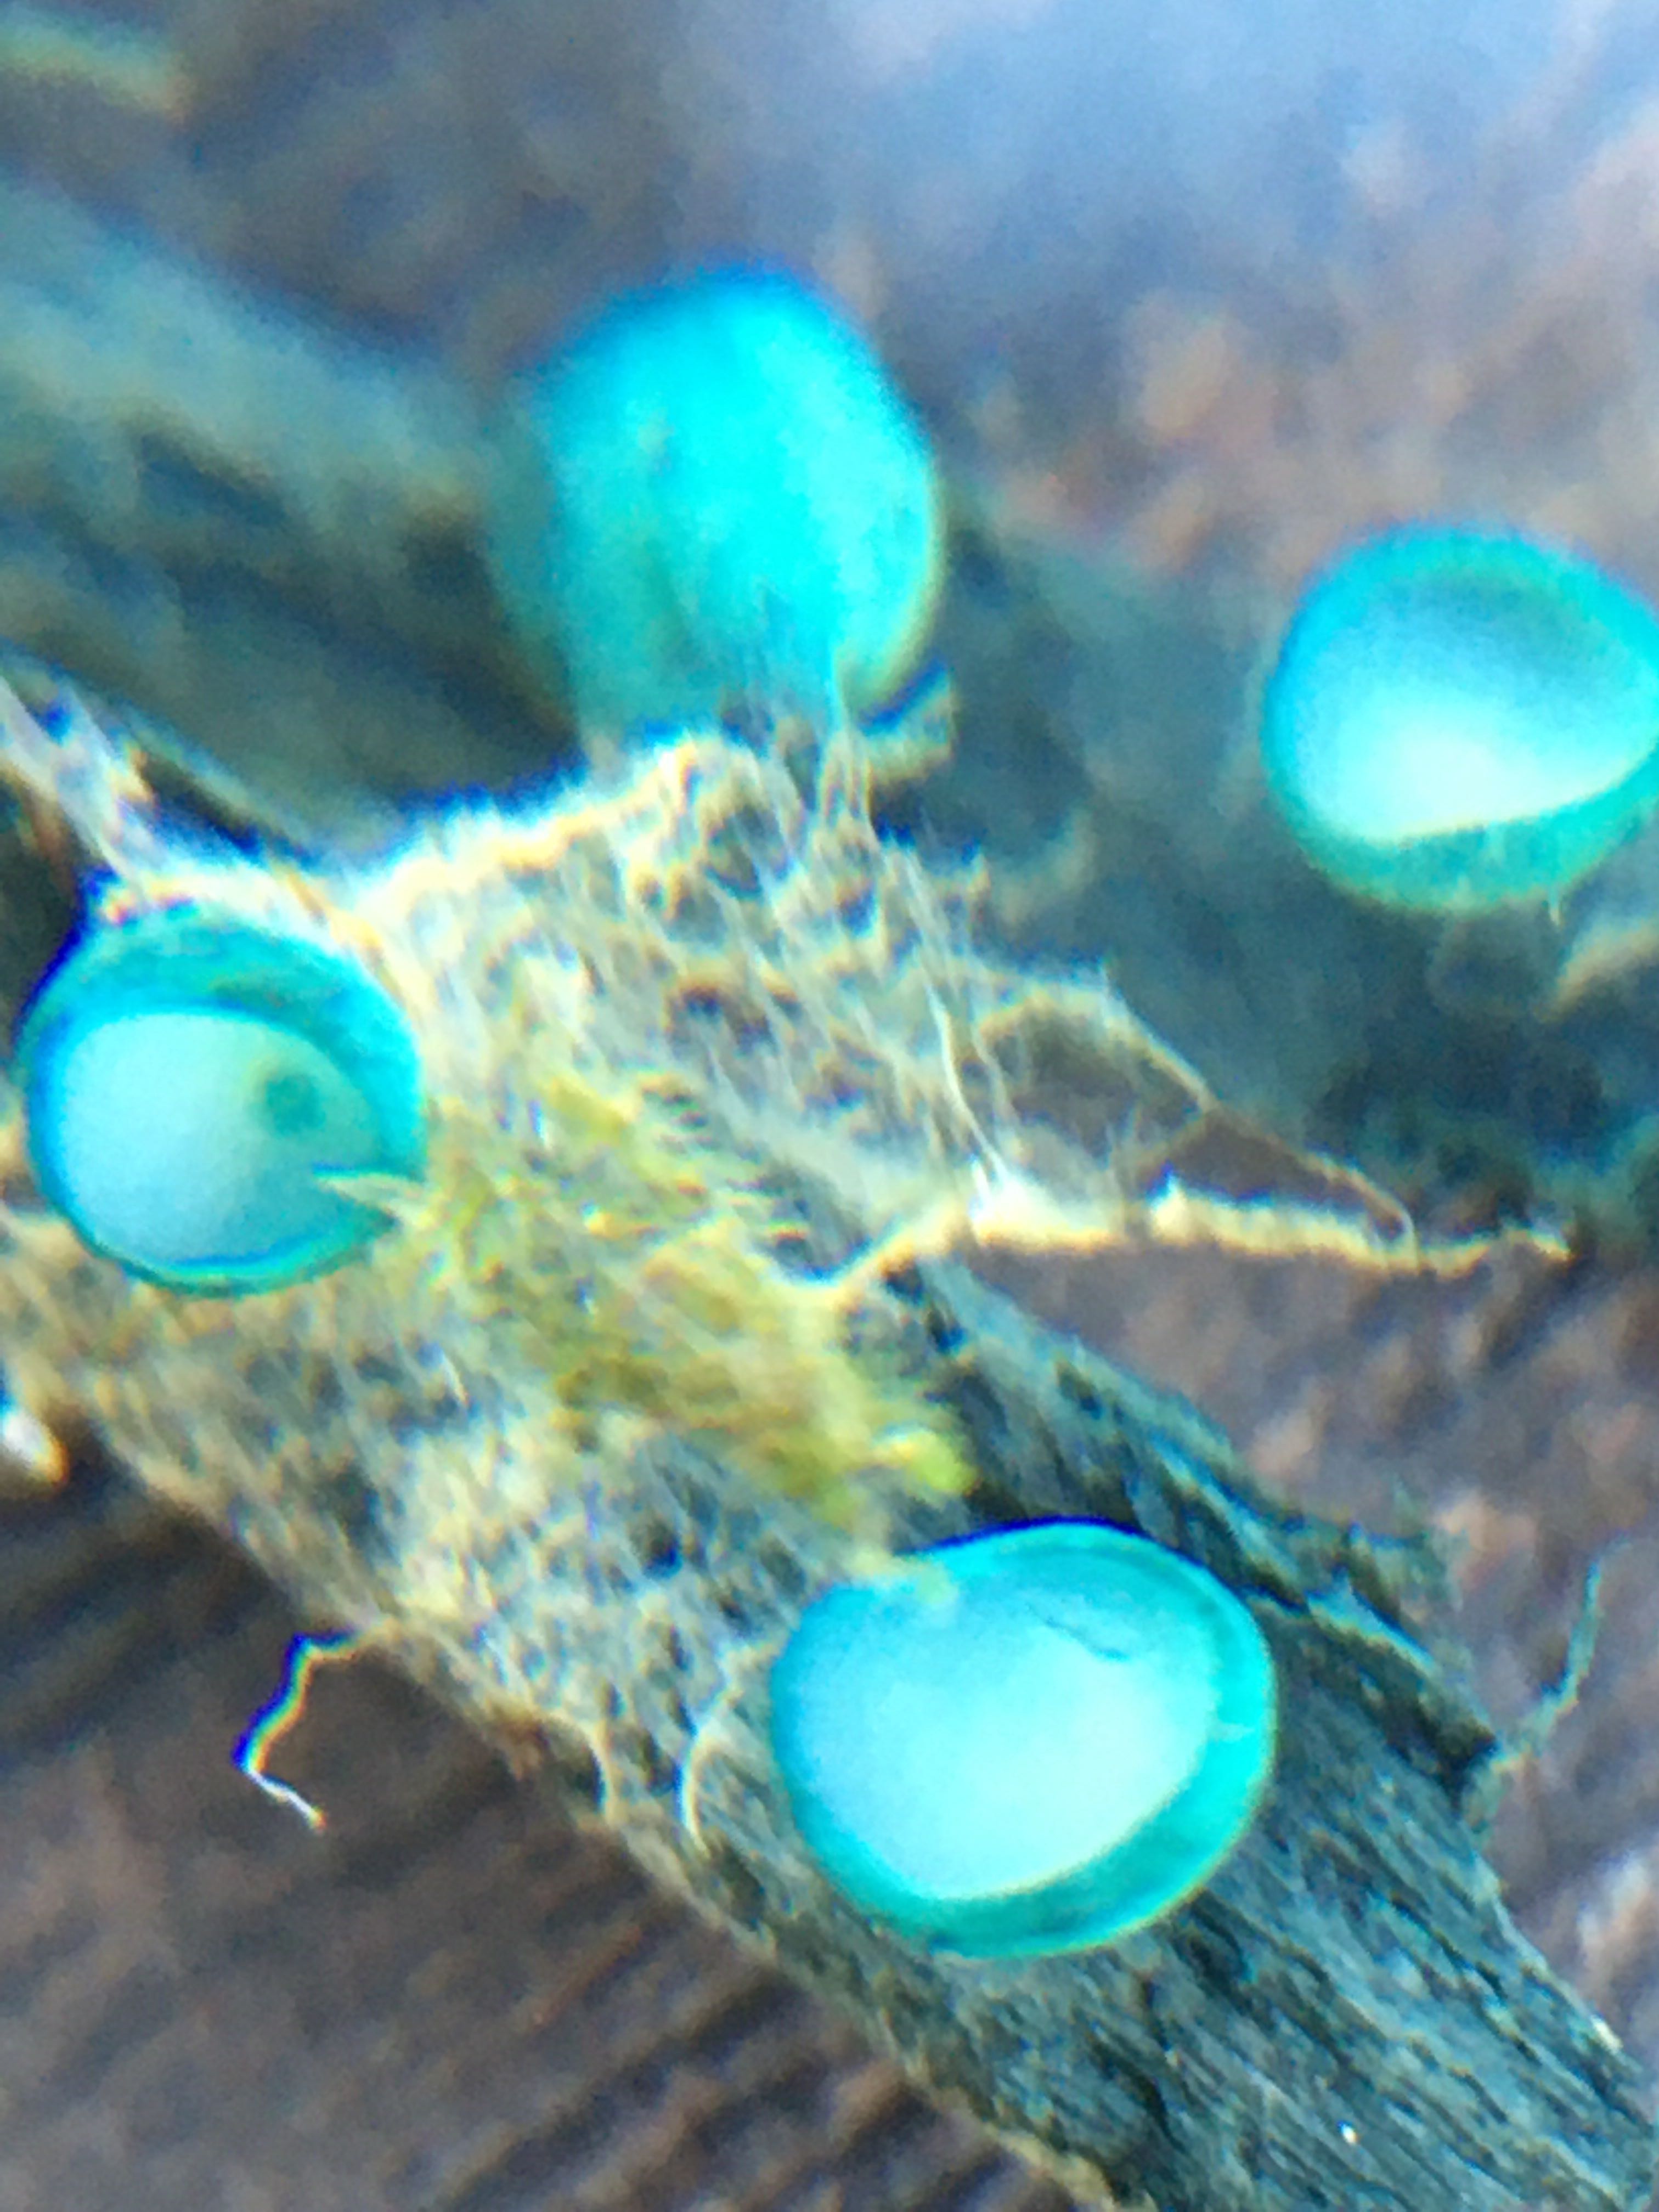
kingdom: Fungi
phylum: Ascomycota
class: Leotiomycetes
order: Helotiales
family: Chlorociboriaceae
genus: Chlorociboria
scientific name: Chlorociboria aeruginosa
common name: bleg grønskive
